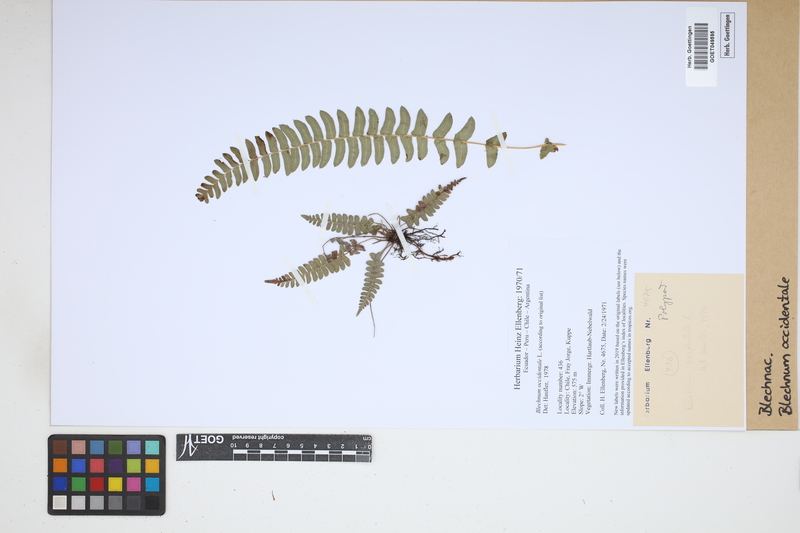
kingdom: Plantae
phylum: Tracheophyta
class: Polypodiopsida
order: Polypodiales
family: Blechnaceae
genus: Blechnum
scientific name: Blechnum occidentale
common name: Hammock fern
